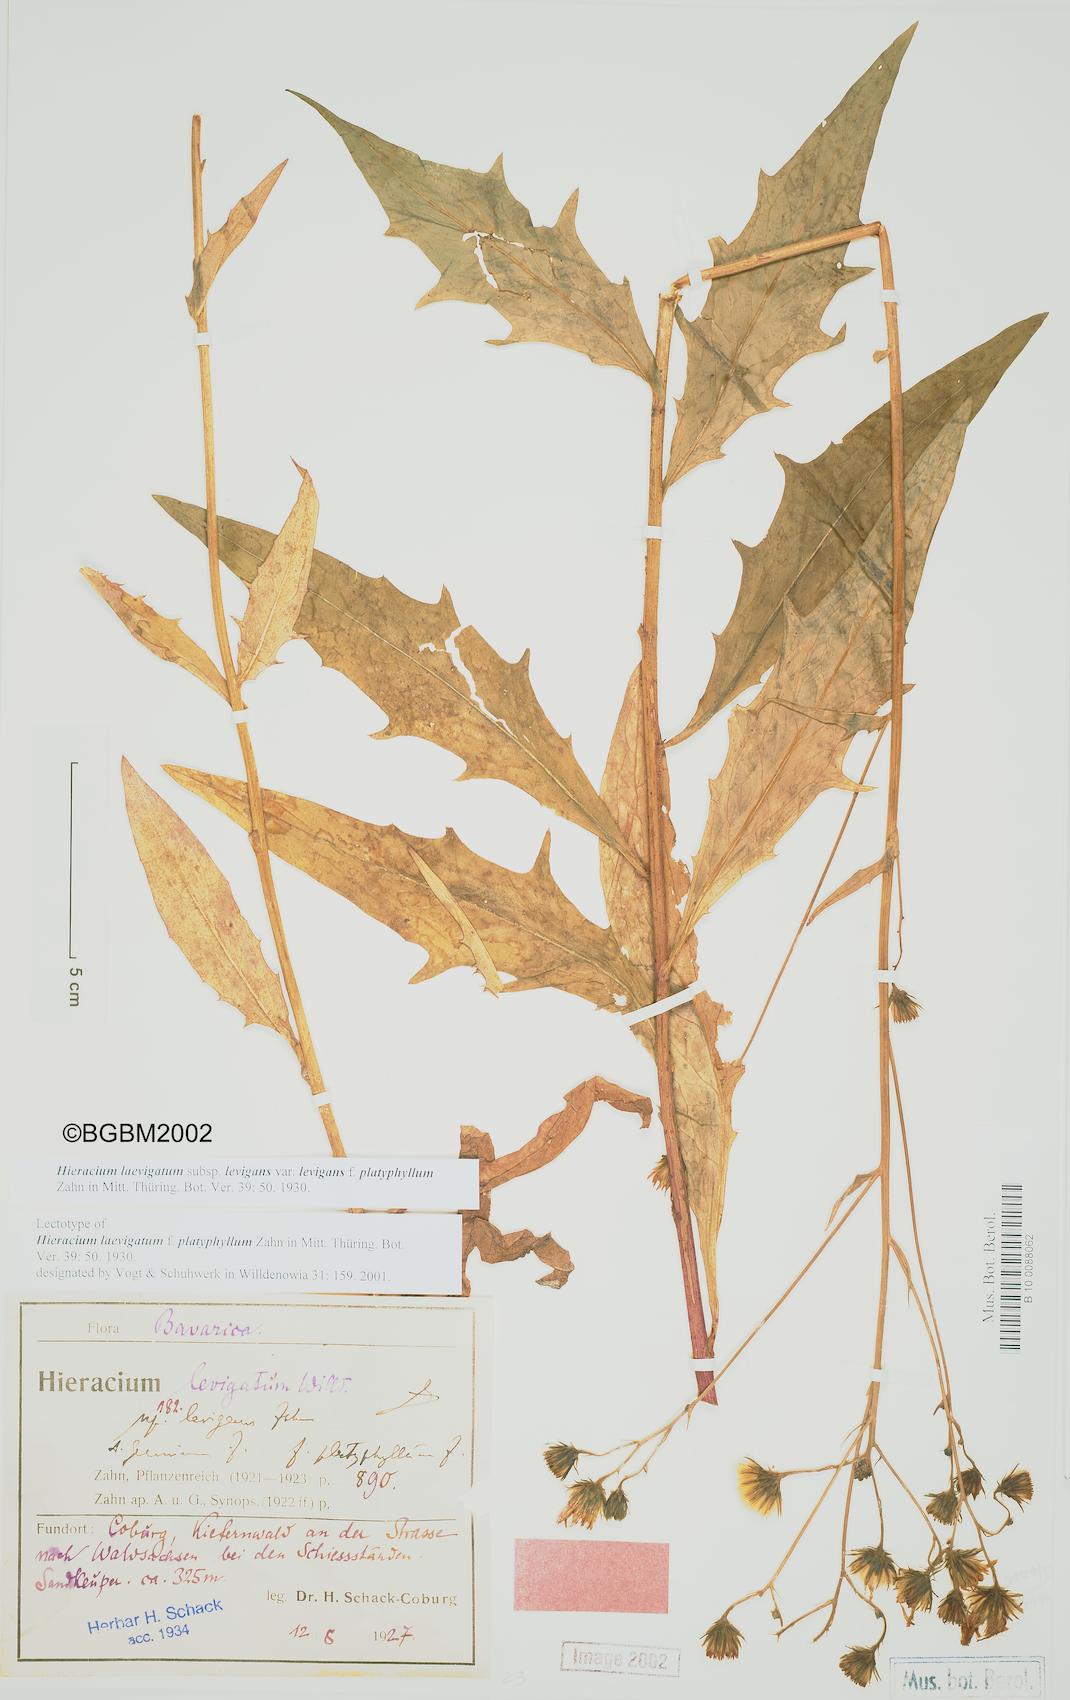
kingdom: Plantae
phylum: Tracheophyta
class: Magnoliopsida
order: Asterales
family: Asteraceae
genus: Hieracium
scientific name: Hieracium laevigatum
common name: Smooth hawkweed
